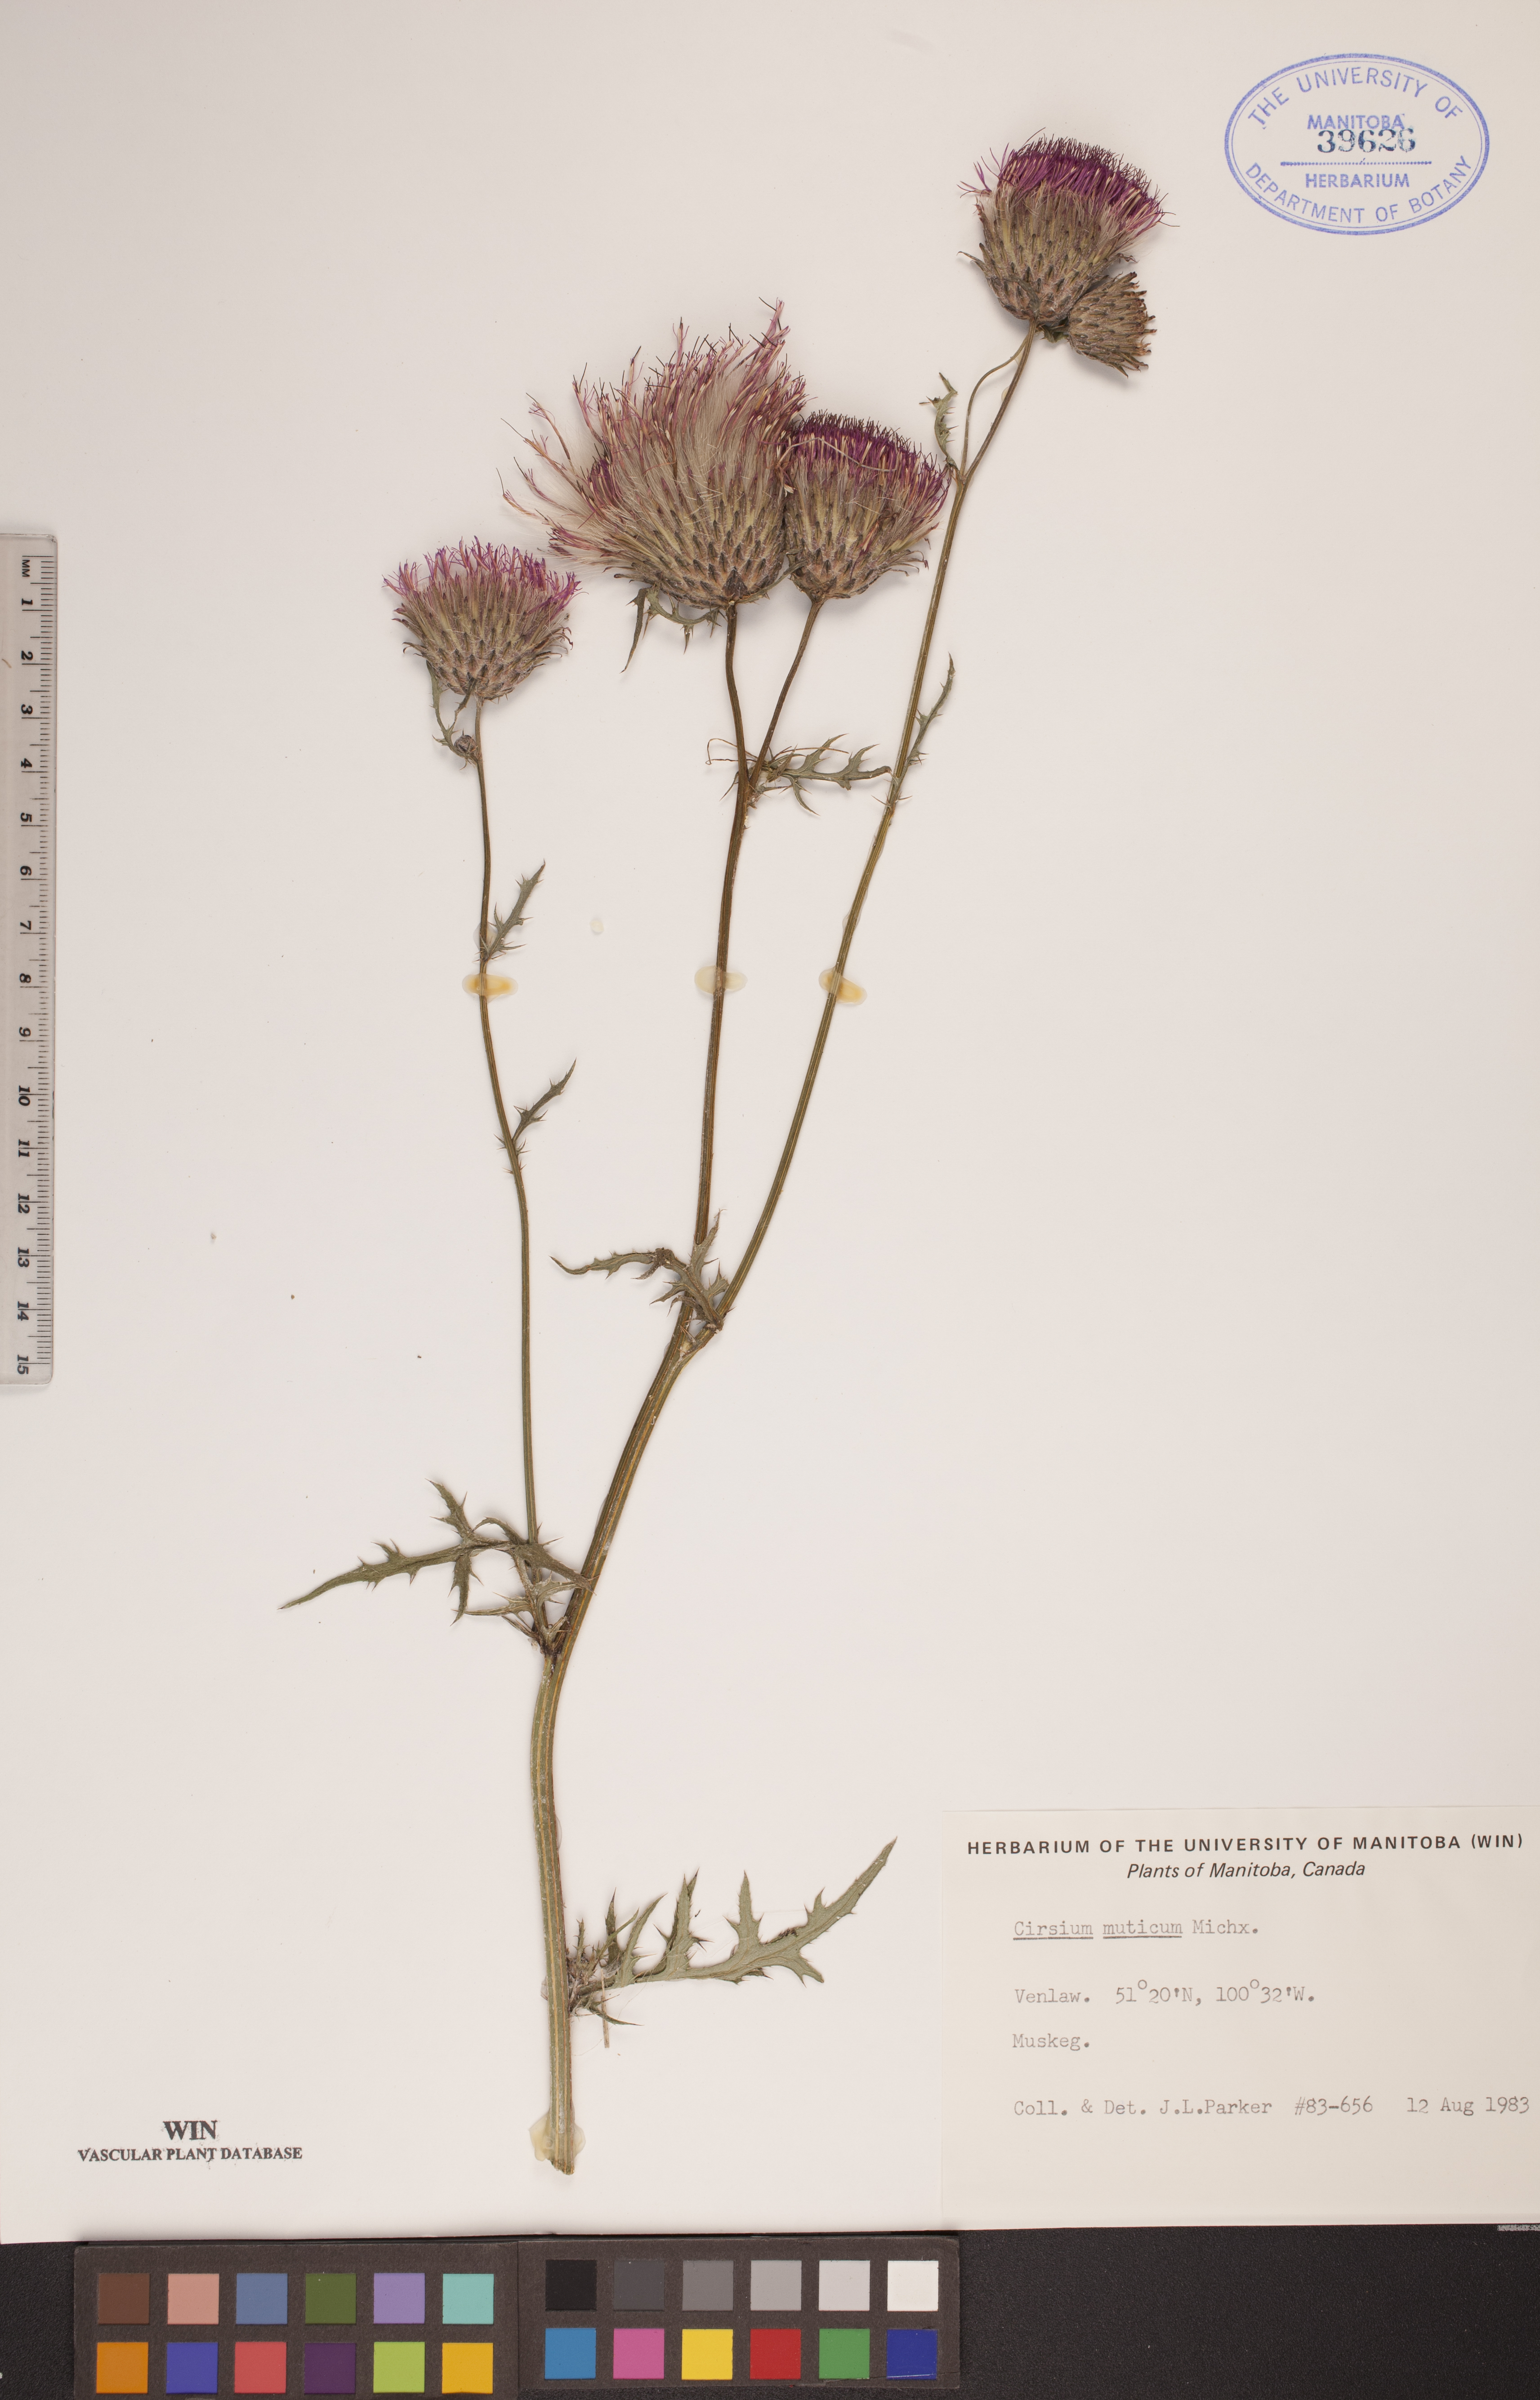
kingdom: Plantae
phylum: Tracheophyta
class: Magnoliopsida
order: Asterales
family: Asteraceae
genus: Cirsium
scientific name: Cirsium muticum
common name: Dunce-nettle
